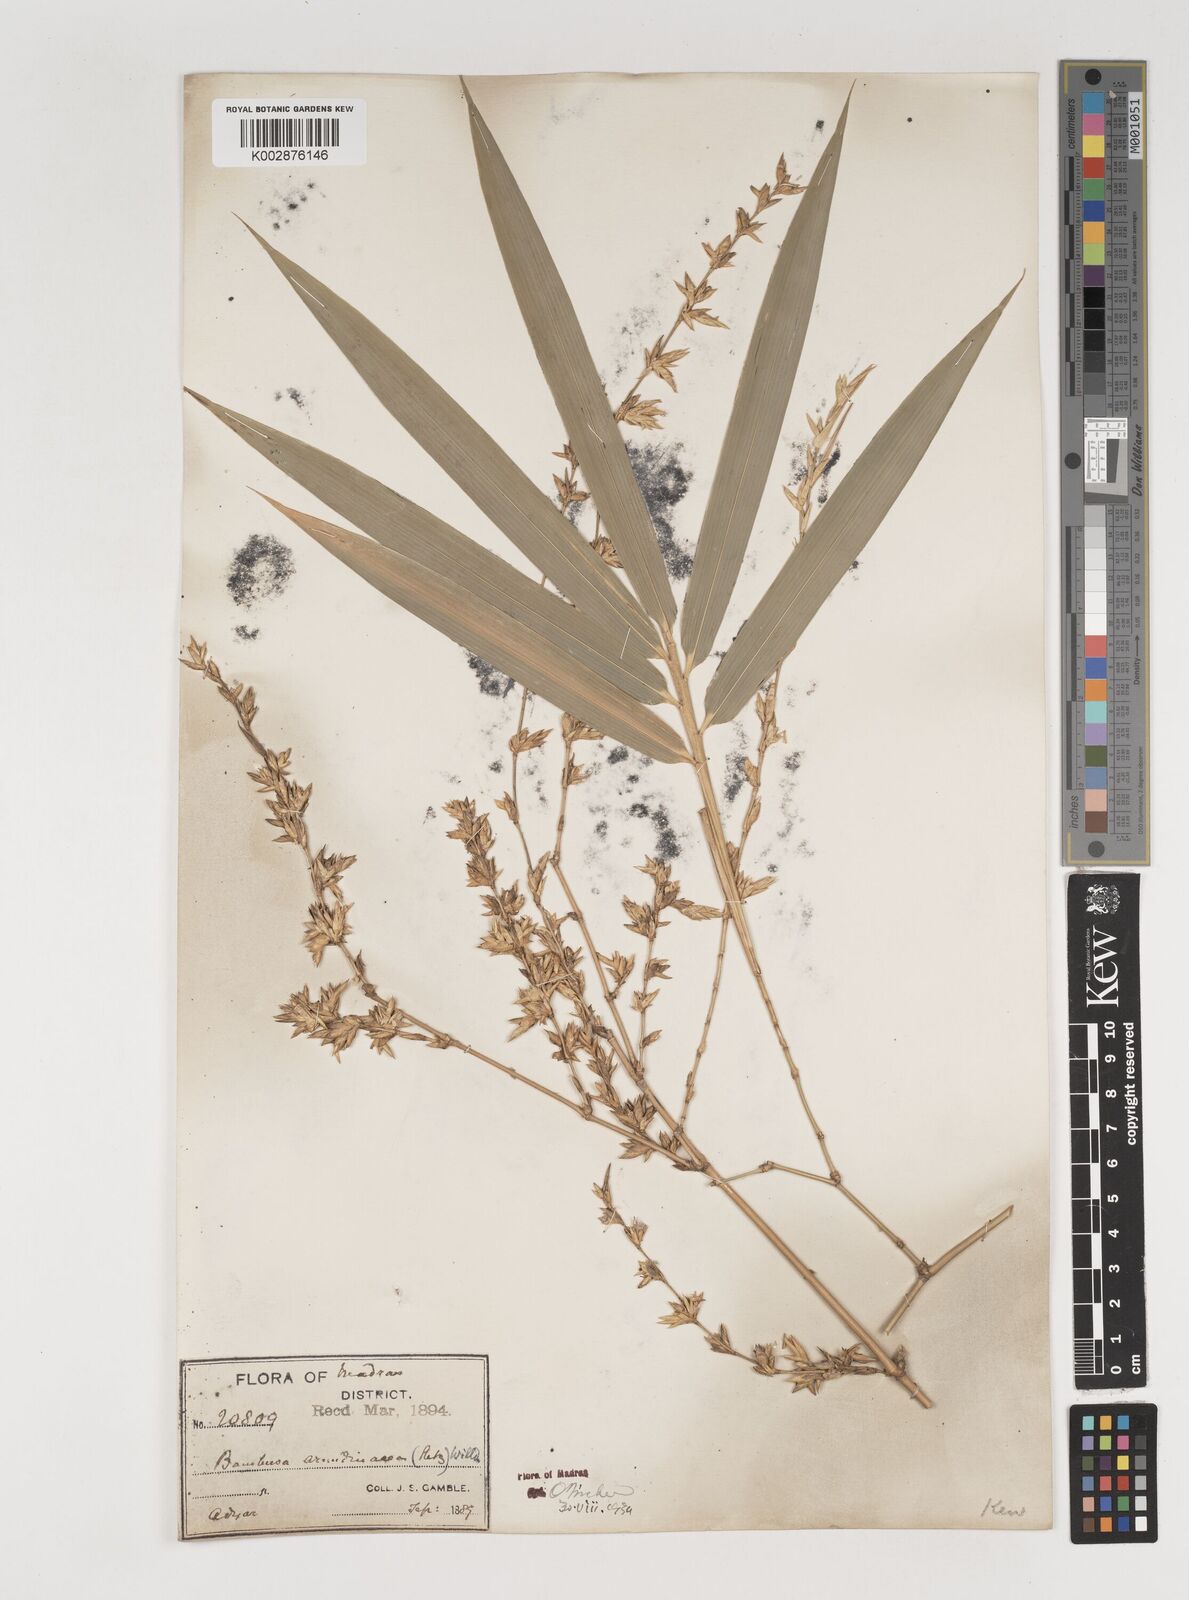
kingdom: Plantae
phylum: Tracheophyta
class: Liliopsida
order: Poales
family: Poaceae
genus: Bambusa
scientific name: Bambusa bambos
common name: Indian thorny bamboo
